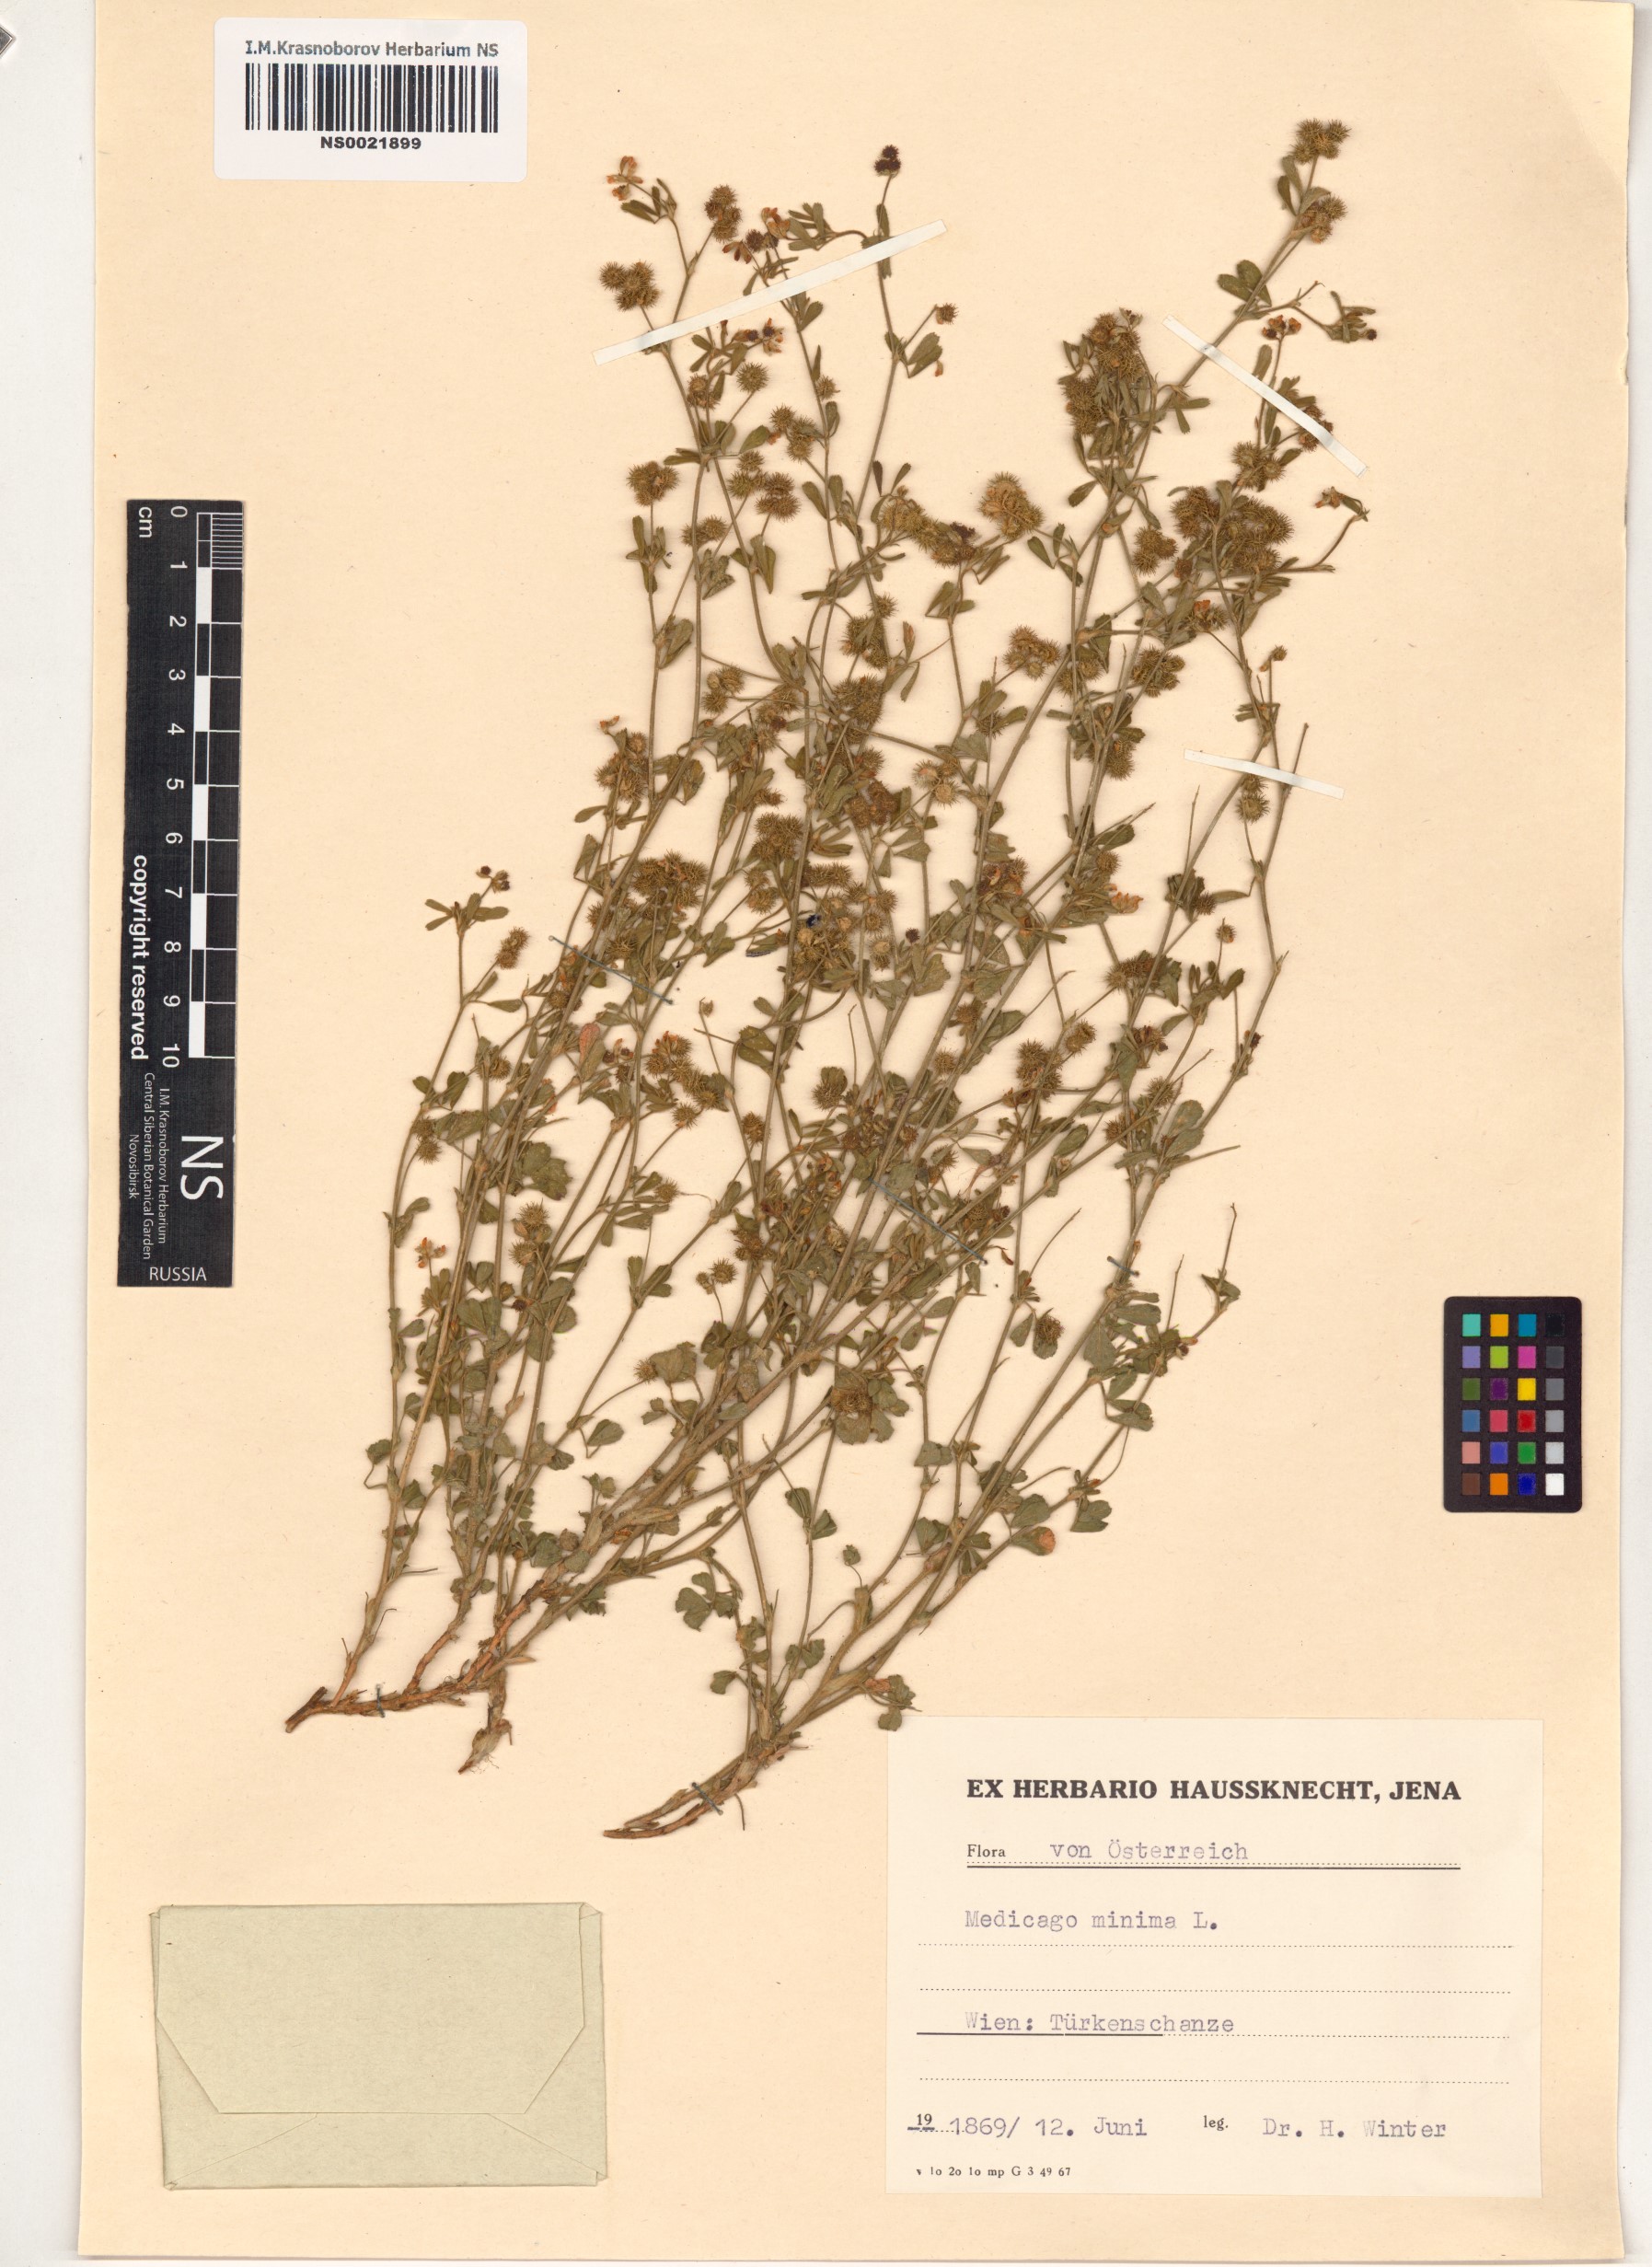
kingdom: Plantae
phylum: Tracheophyta
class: Magnoliopsida
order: Fabales
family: Fabaceae
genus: Medicago
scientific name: Medicago minima
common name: Little bur-clover
